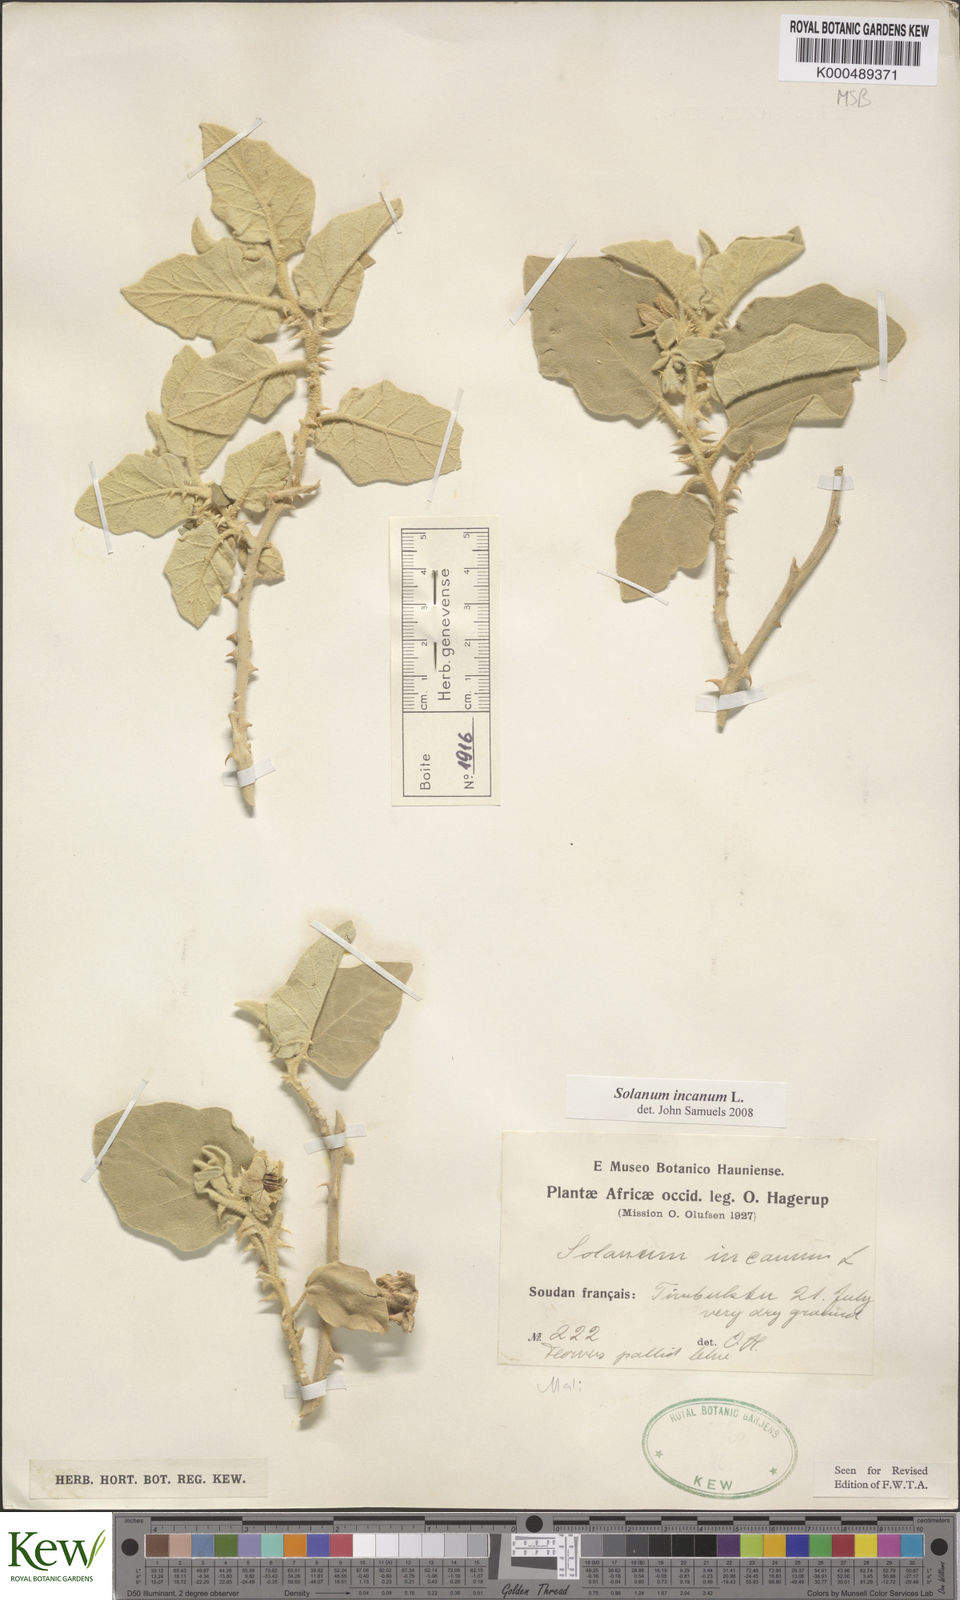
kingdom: Plantae
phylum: Tracheophyta
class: Magnoliopsida
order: Solanales
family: Solanaceae
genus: Solanum
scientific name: Solanum incanum
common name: Bitter apple
